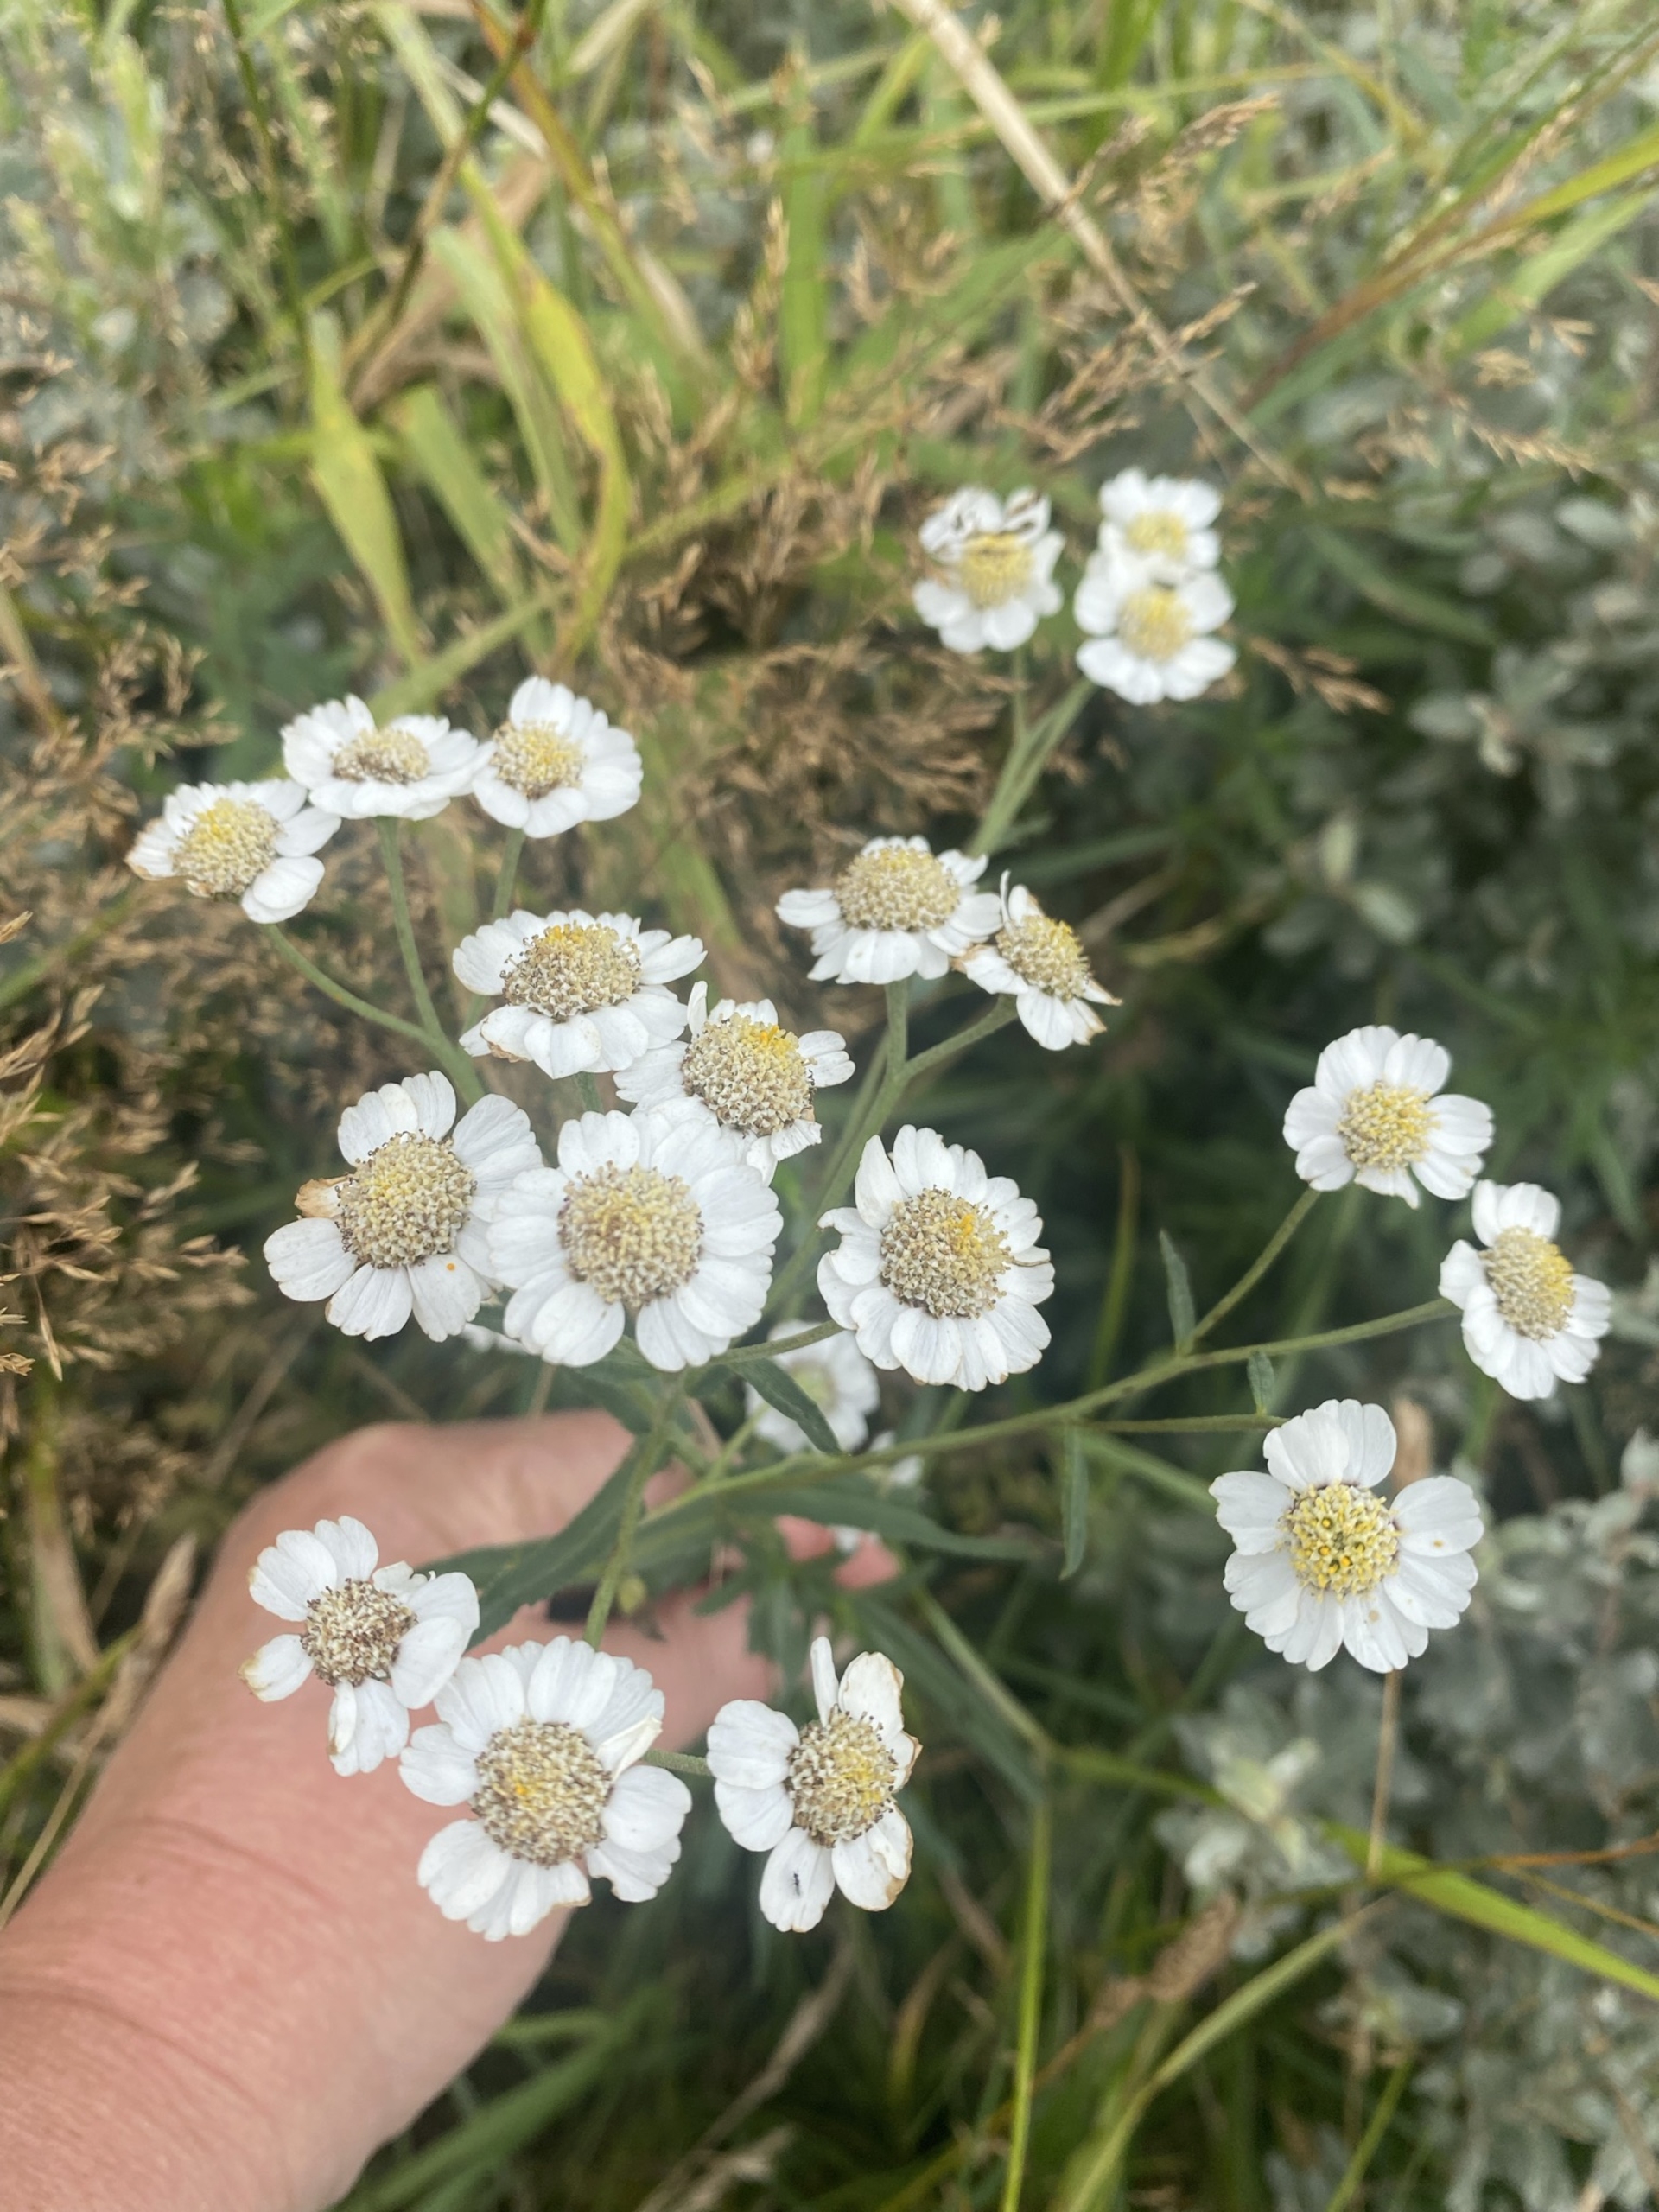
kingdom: Plantae
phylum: Tracheophyta
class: Magnoliopsida
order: Asterales
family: Asteraceae
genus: Achillea
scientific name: Achillea ptarmica
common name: Nyse-røllike
